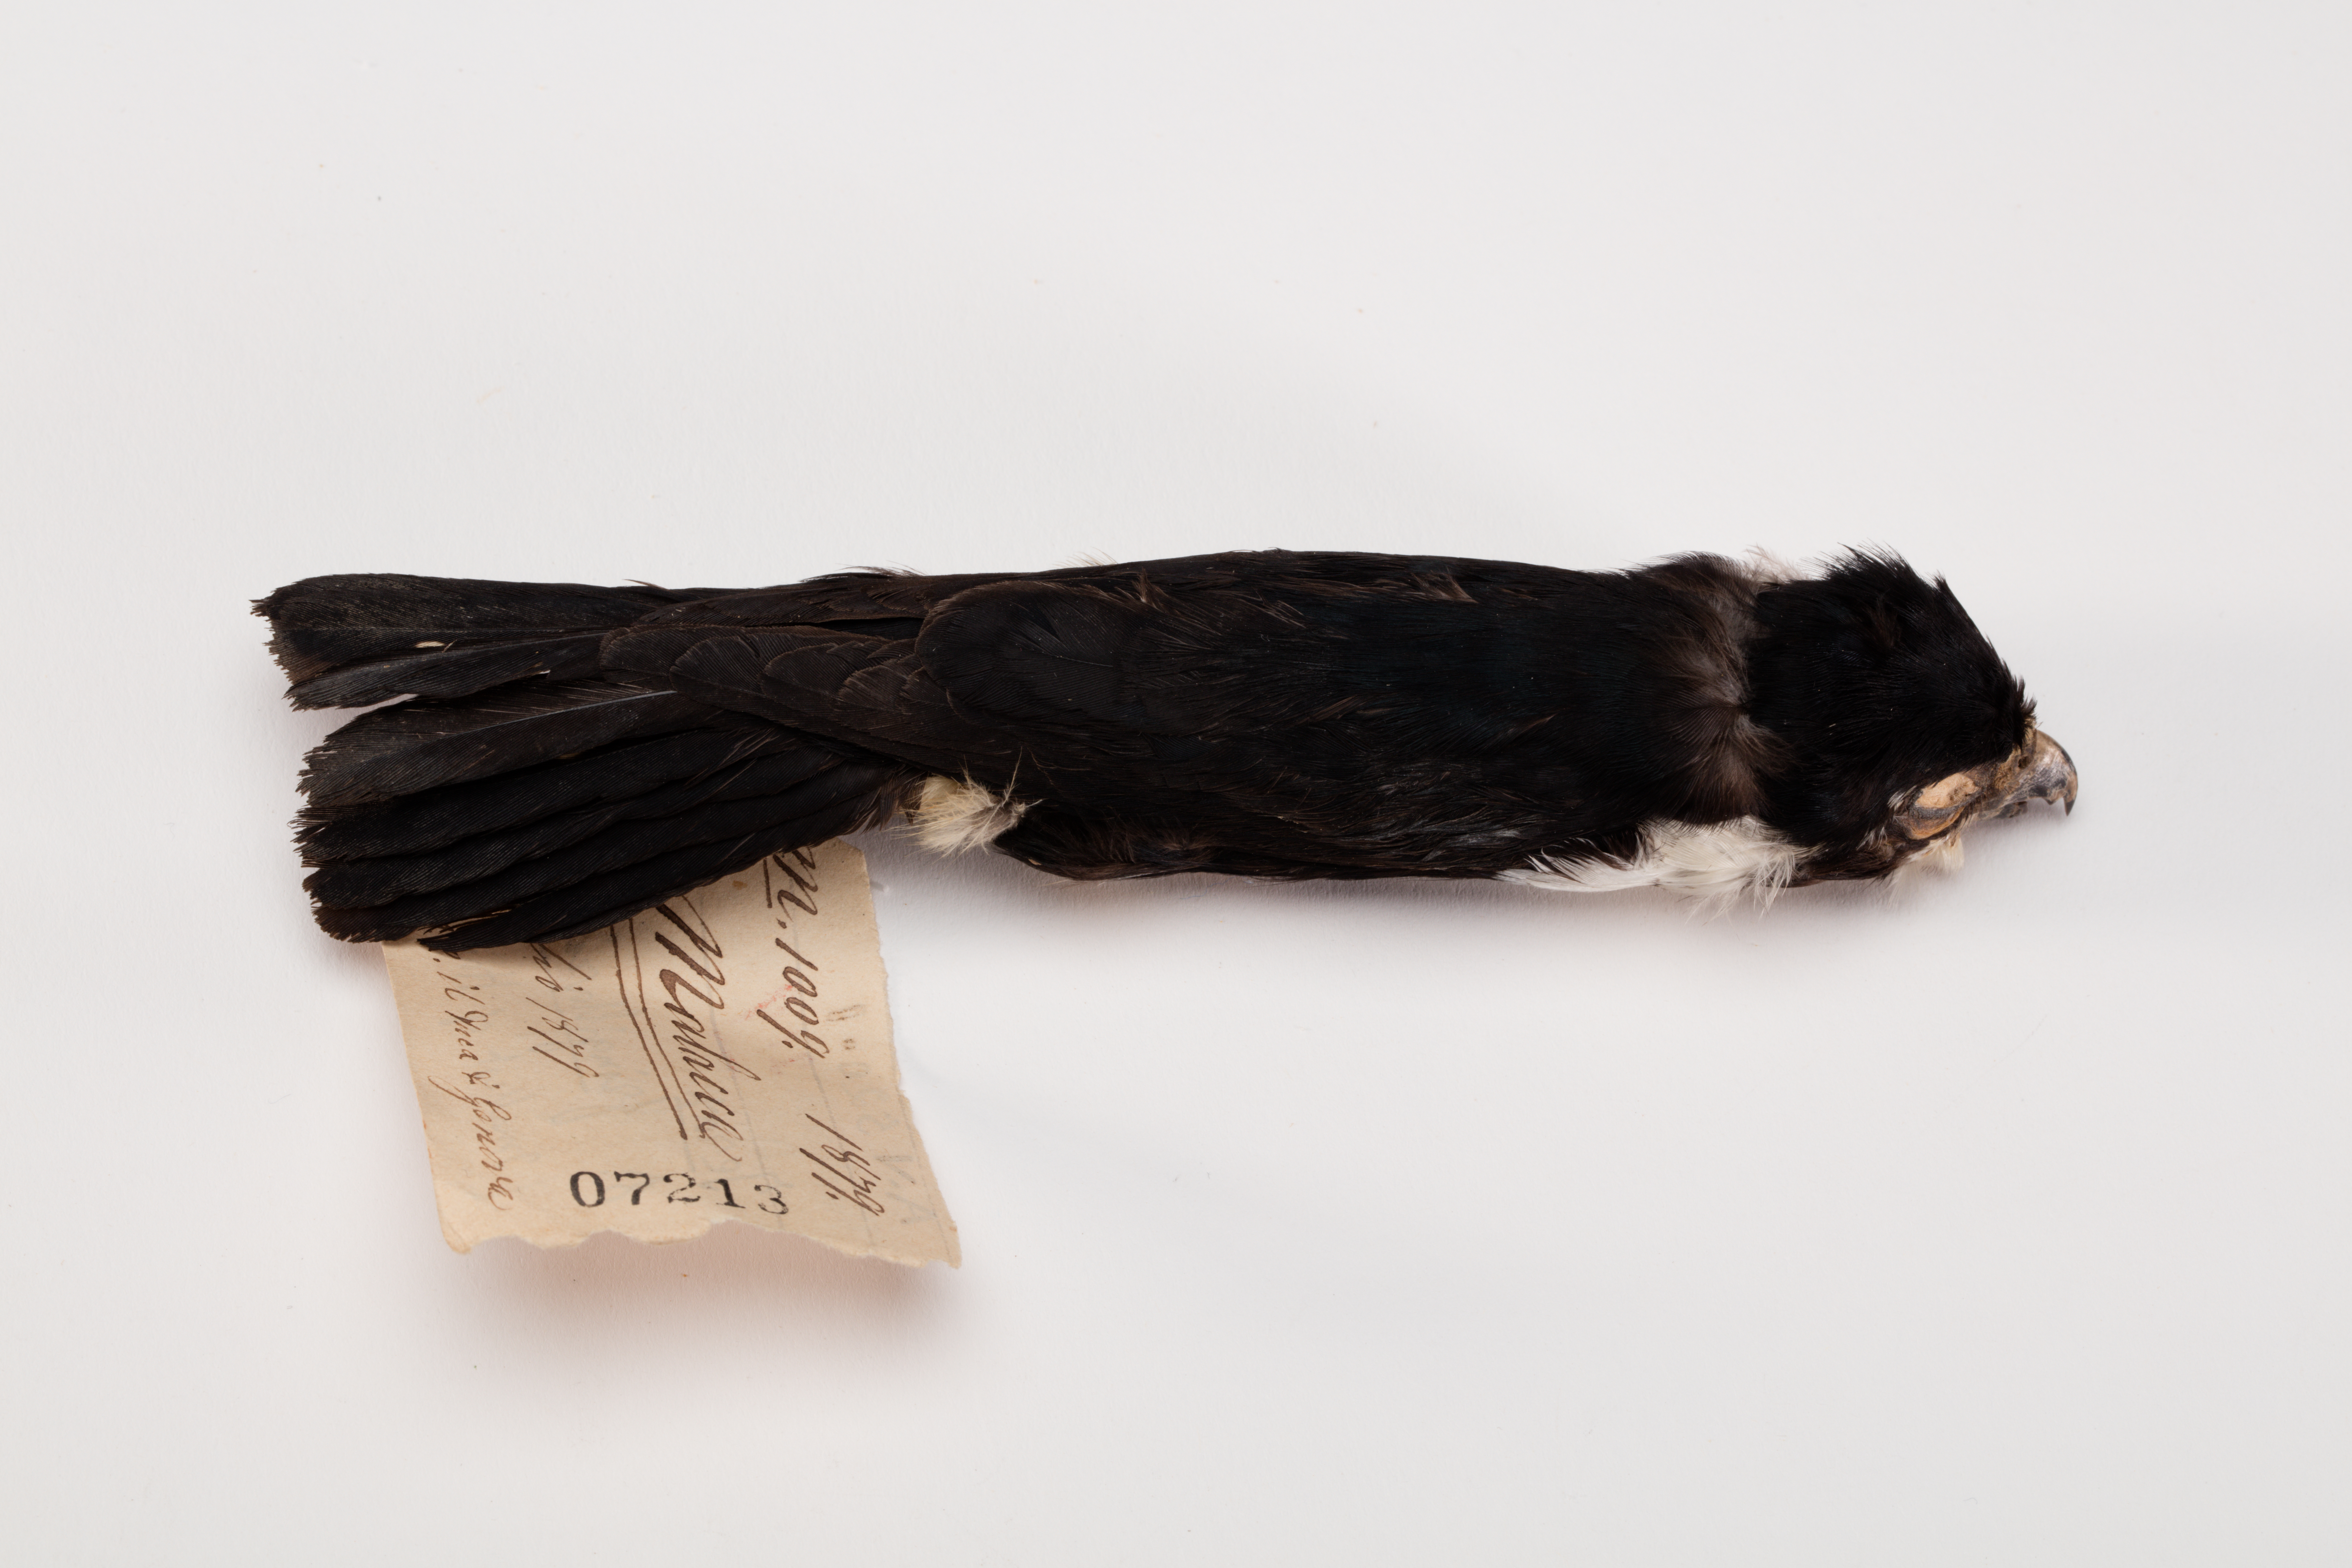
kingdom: Animalia
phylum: Chordata
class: Aves
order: Falconiformes
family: Falconidae
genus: Microhierax
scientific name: Microhierax fringillarius
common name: Black-thighed falconet
